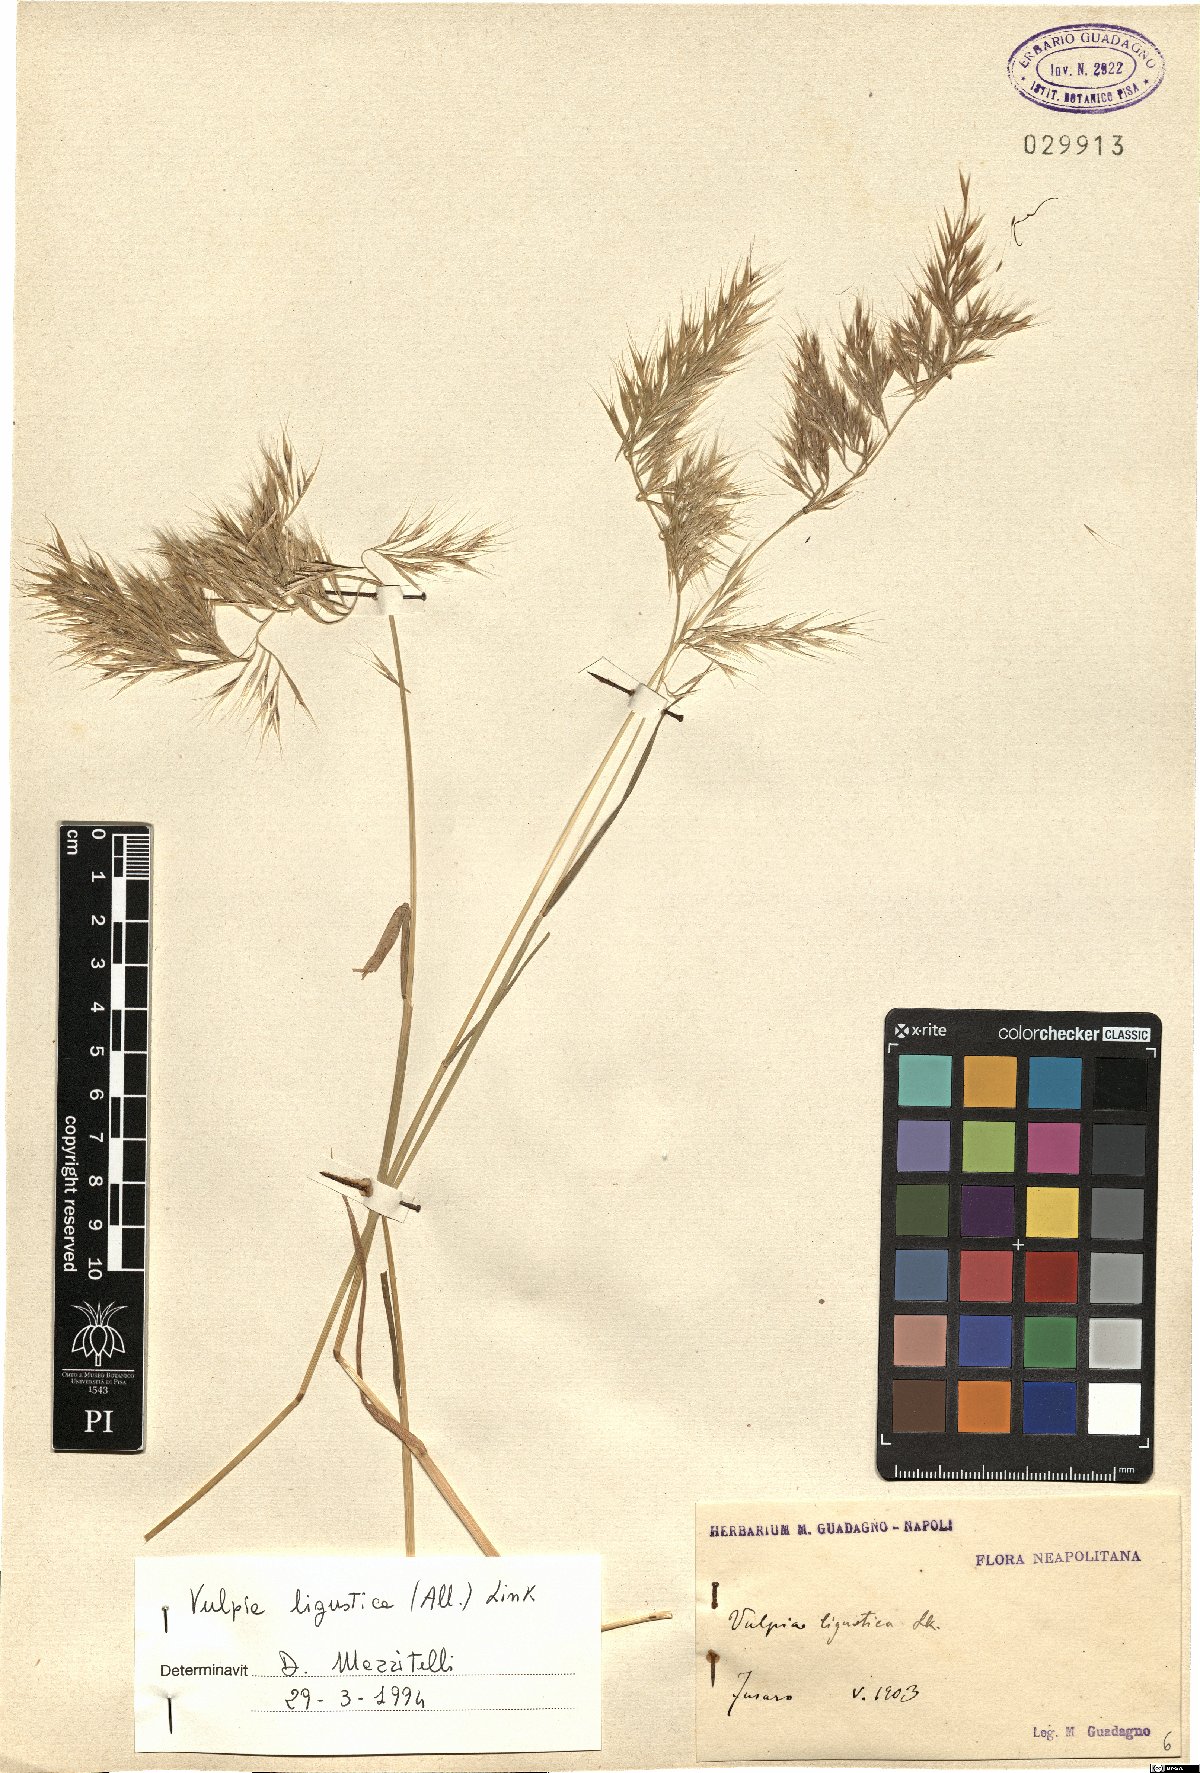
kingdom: Plantae
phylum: Tracheophyta
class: Liliopsida
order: Poales
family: Poaceae
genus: Festuca
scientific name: Festuca ligustica
